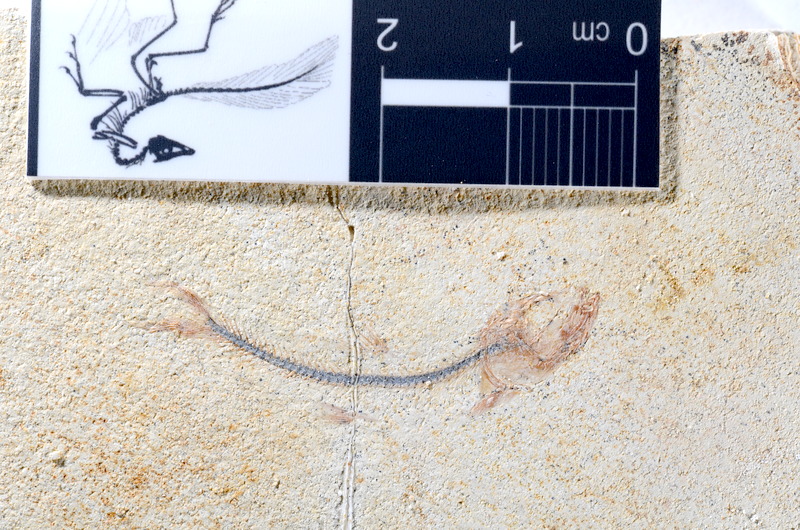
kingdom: Animalia
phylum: Chordata
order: Salmoniformes
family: Orthogonikleithridae
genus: Orthogonikleithrus
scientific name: Orthogonikleithrus hoelli
